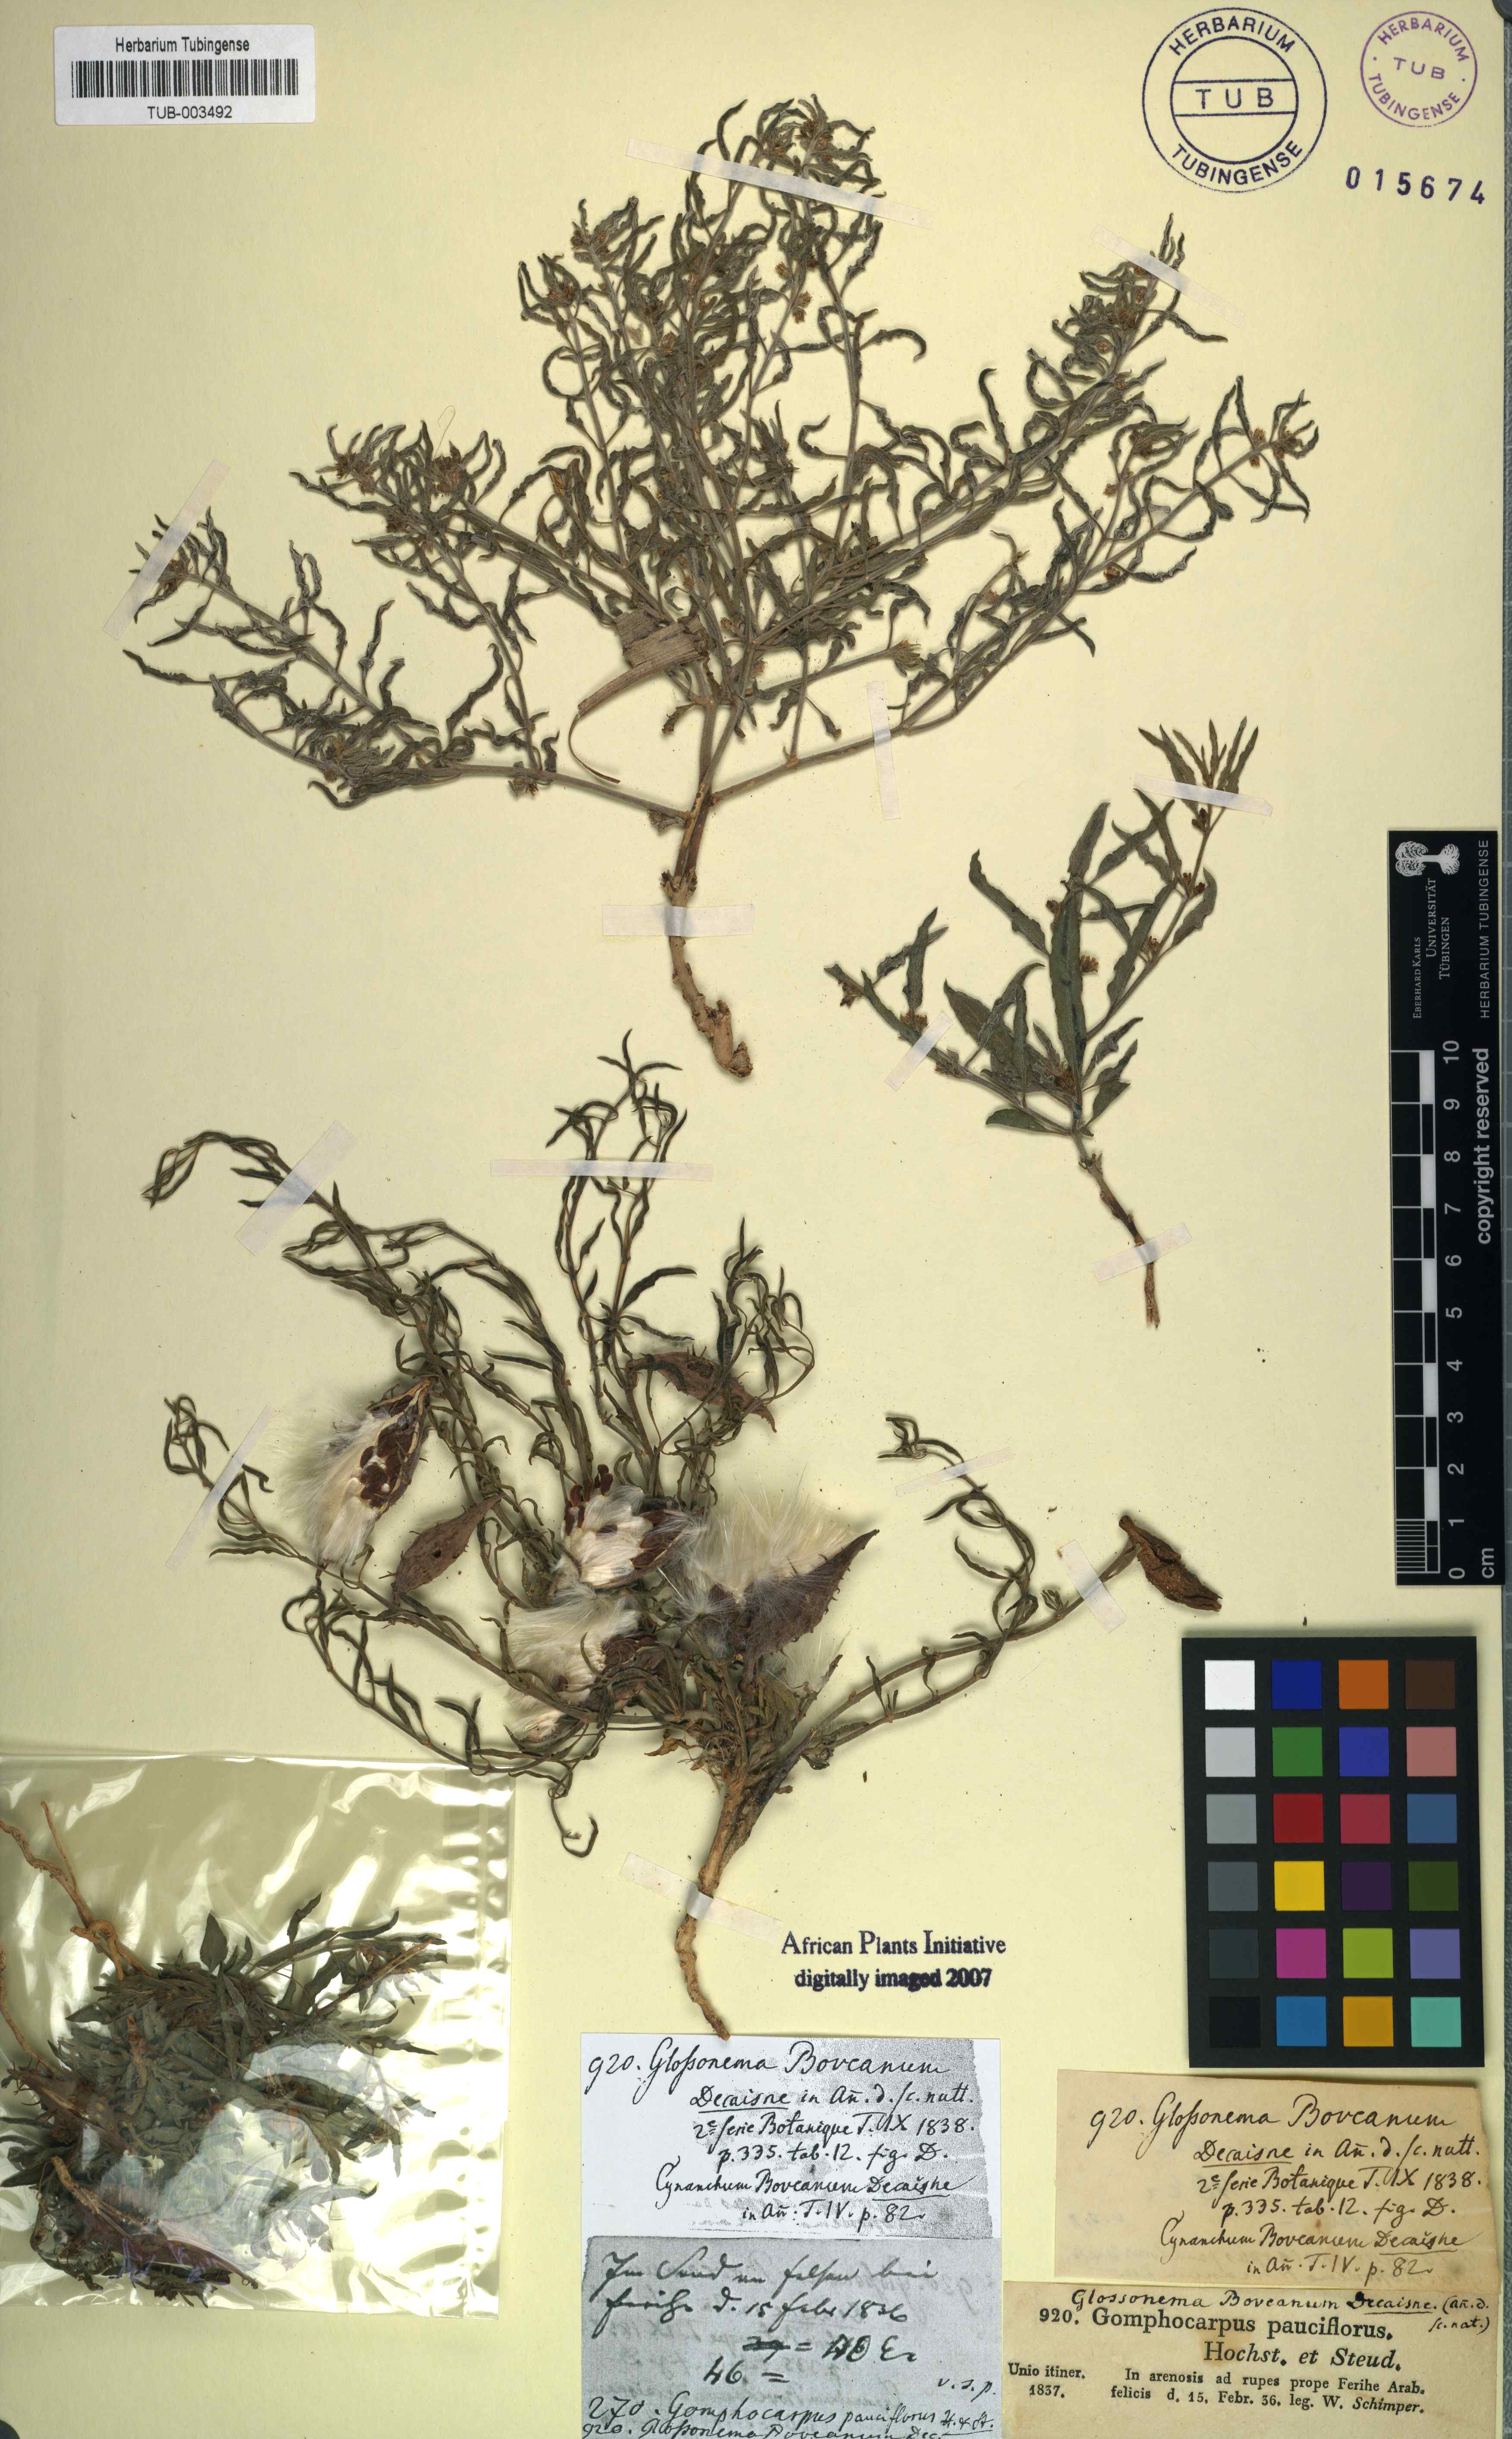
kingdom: Plantae
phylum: Tracheophyta
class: Magnoliopsida
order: Gentianales
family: Apocynaceae
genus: Cynanchum
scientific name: Cynanchum boveanum
